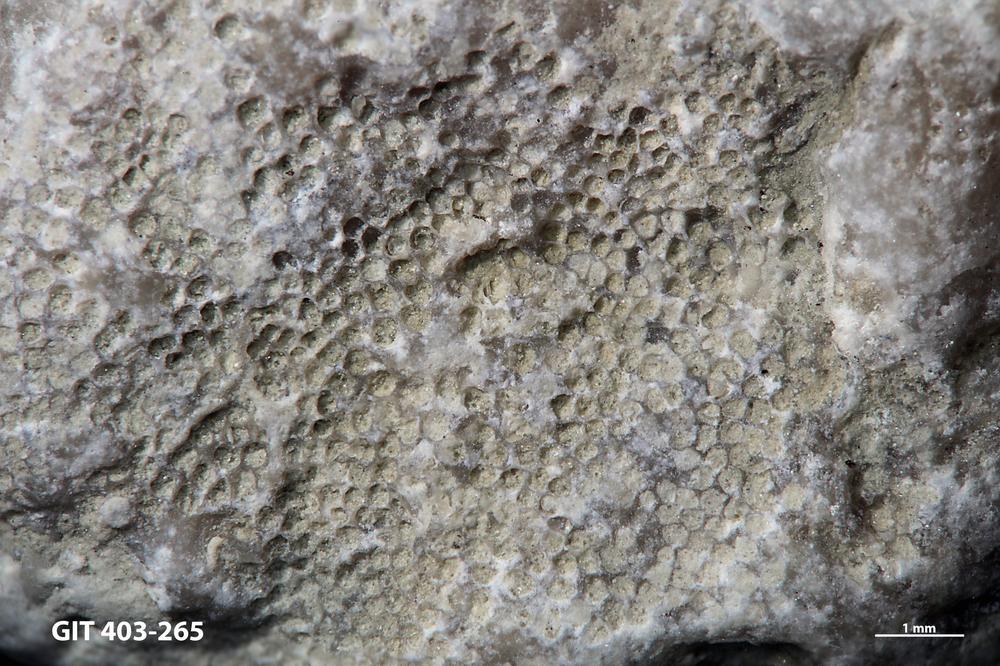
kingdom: Animalia
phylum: Bryozoa
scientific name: Bryozoa
